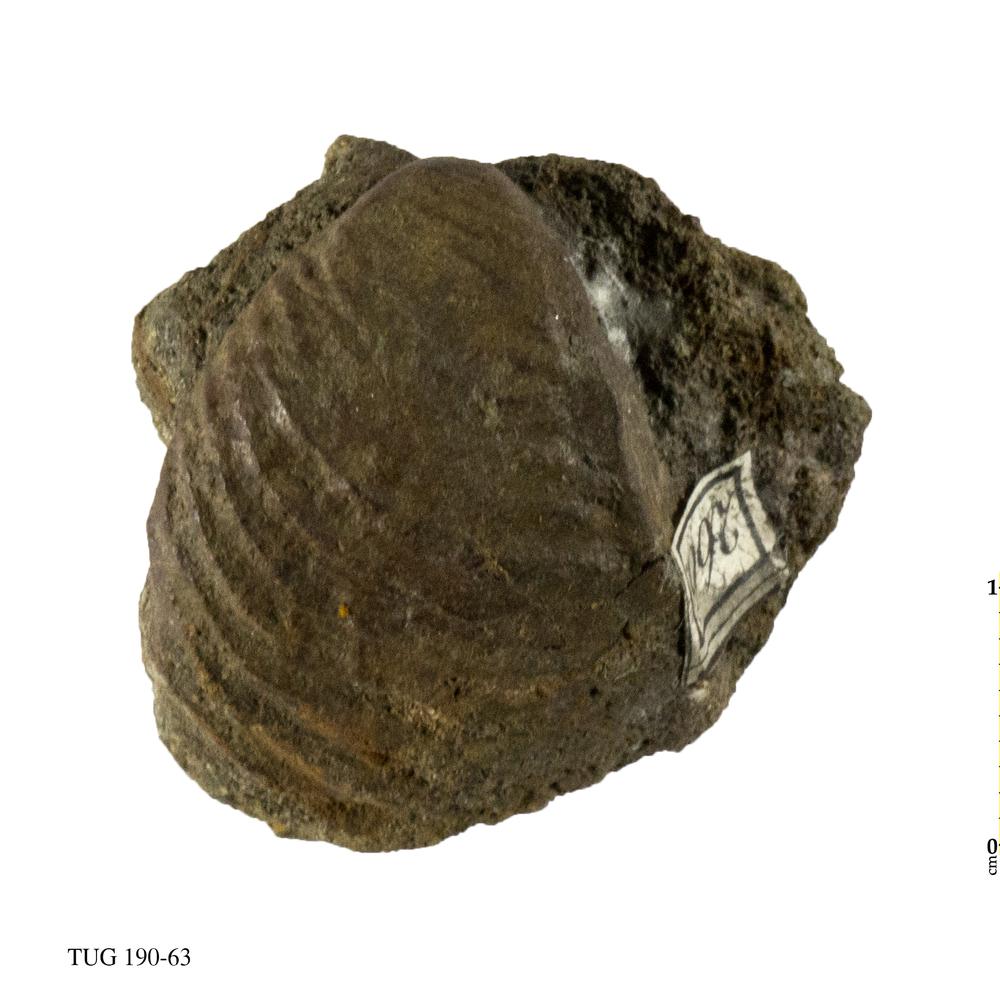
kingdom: Animalia
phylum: Mollusca
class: Bivalvia
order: Trigoniida
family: Trigoniidae
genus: Trigonia
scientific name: Trigonia costata
